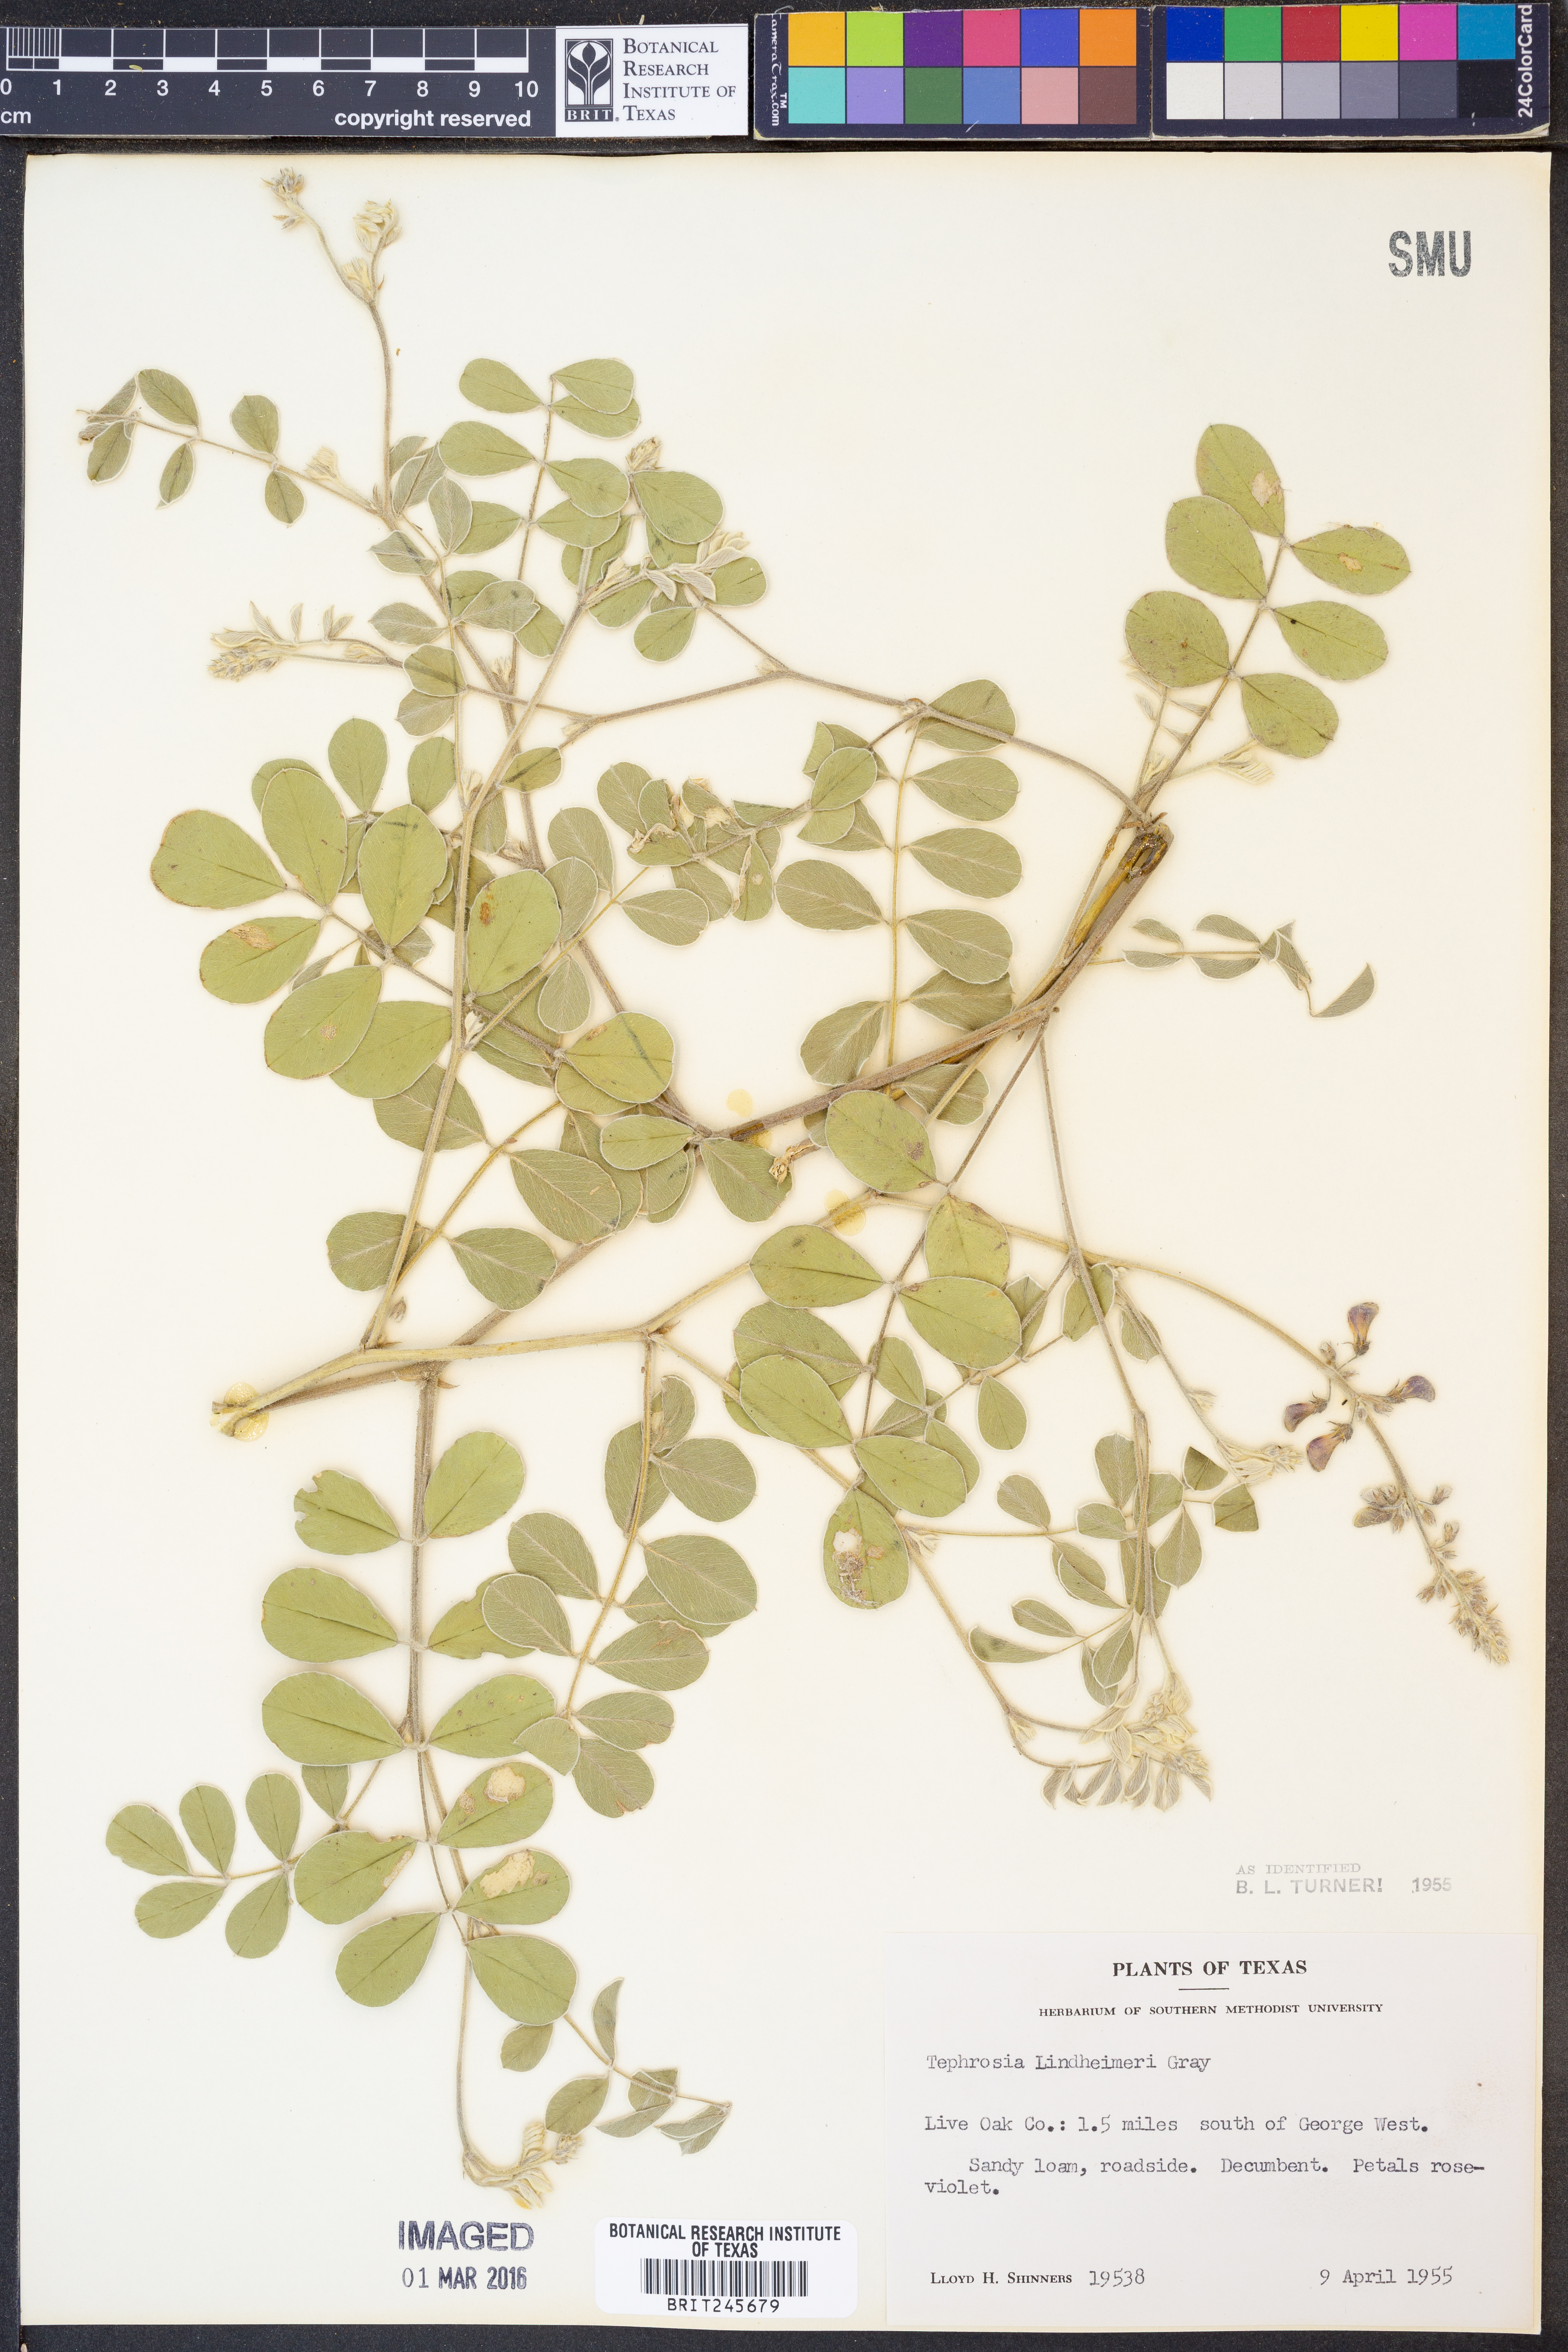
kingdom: Plantae
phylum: Tracheophyta
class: Magnoliopsida
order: Fabales
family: Fabaceae
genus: Tephrosia
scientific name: Tephrosia lindheimeri
